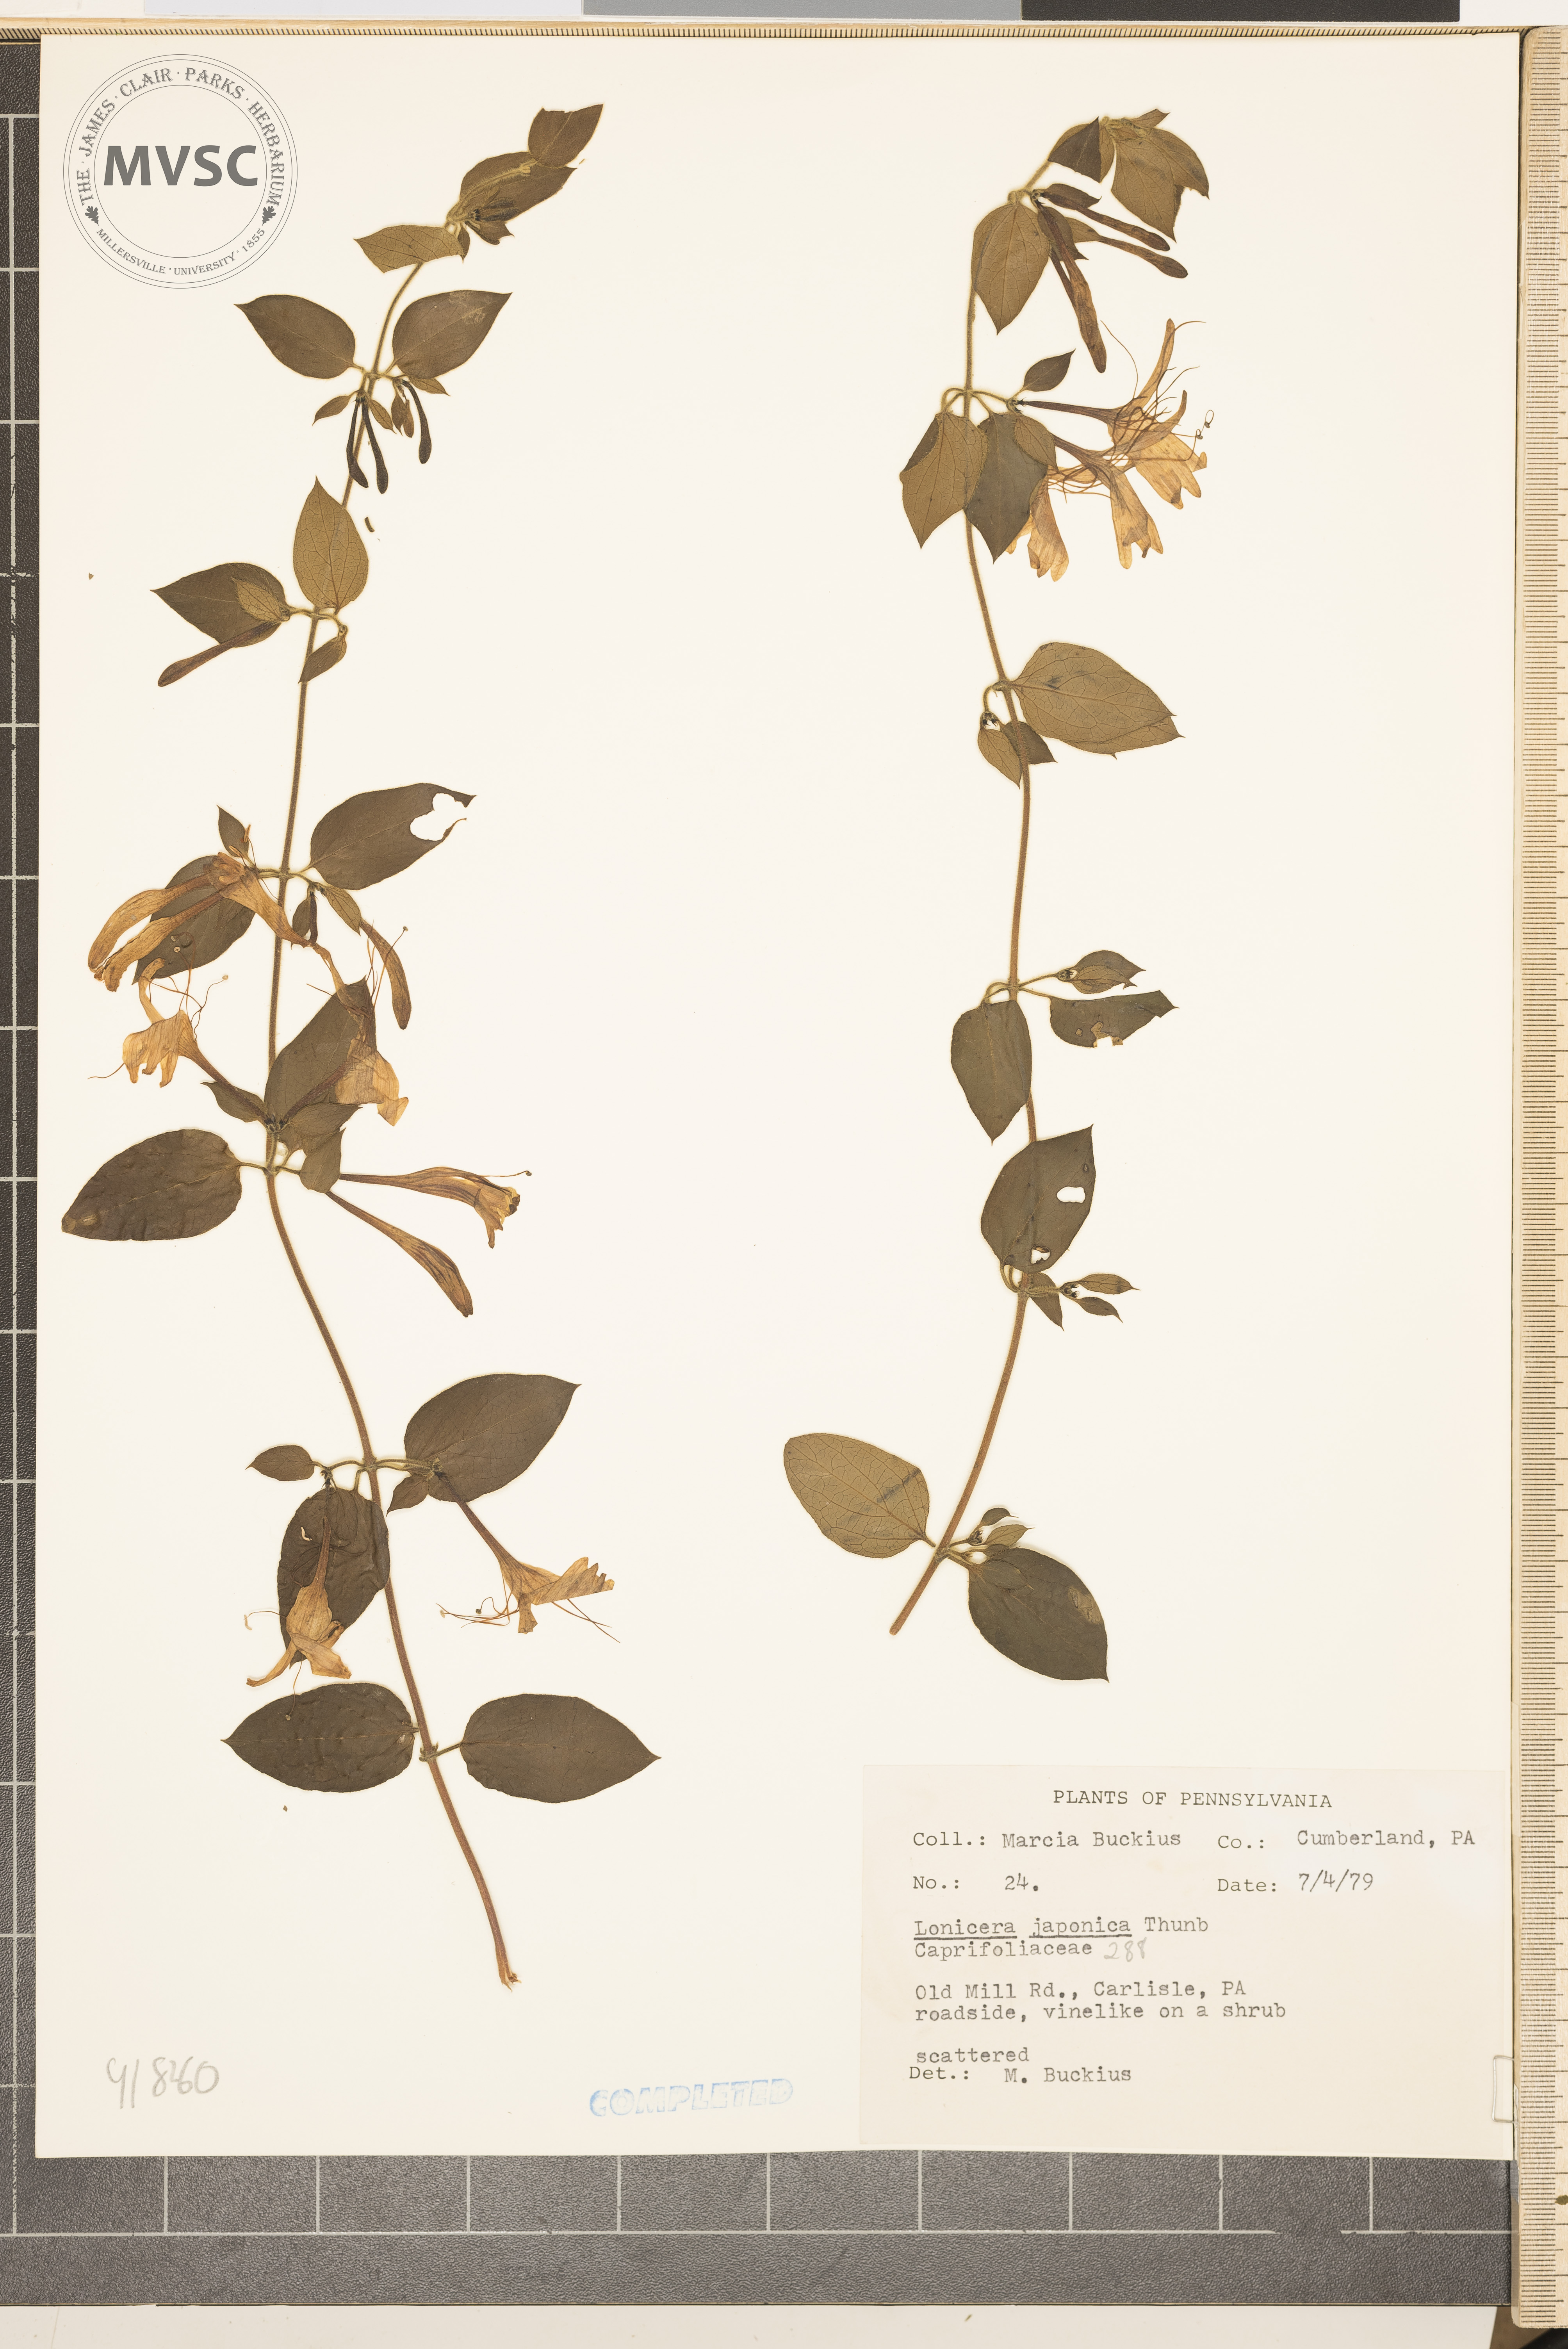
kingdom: Plantae
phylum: Tracheophyta
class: Magnoliopsida
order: Dipsacales
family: Caprifoliaceae
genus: Lonicera
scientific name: Lonicera japonica
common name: Japanese honeysuckle
